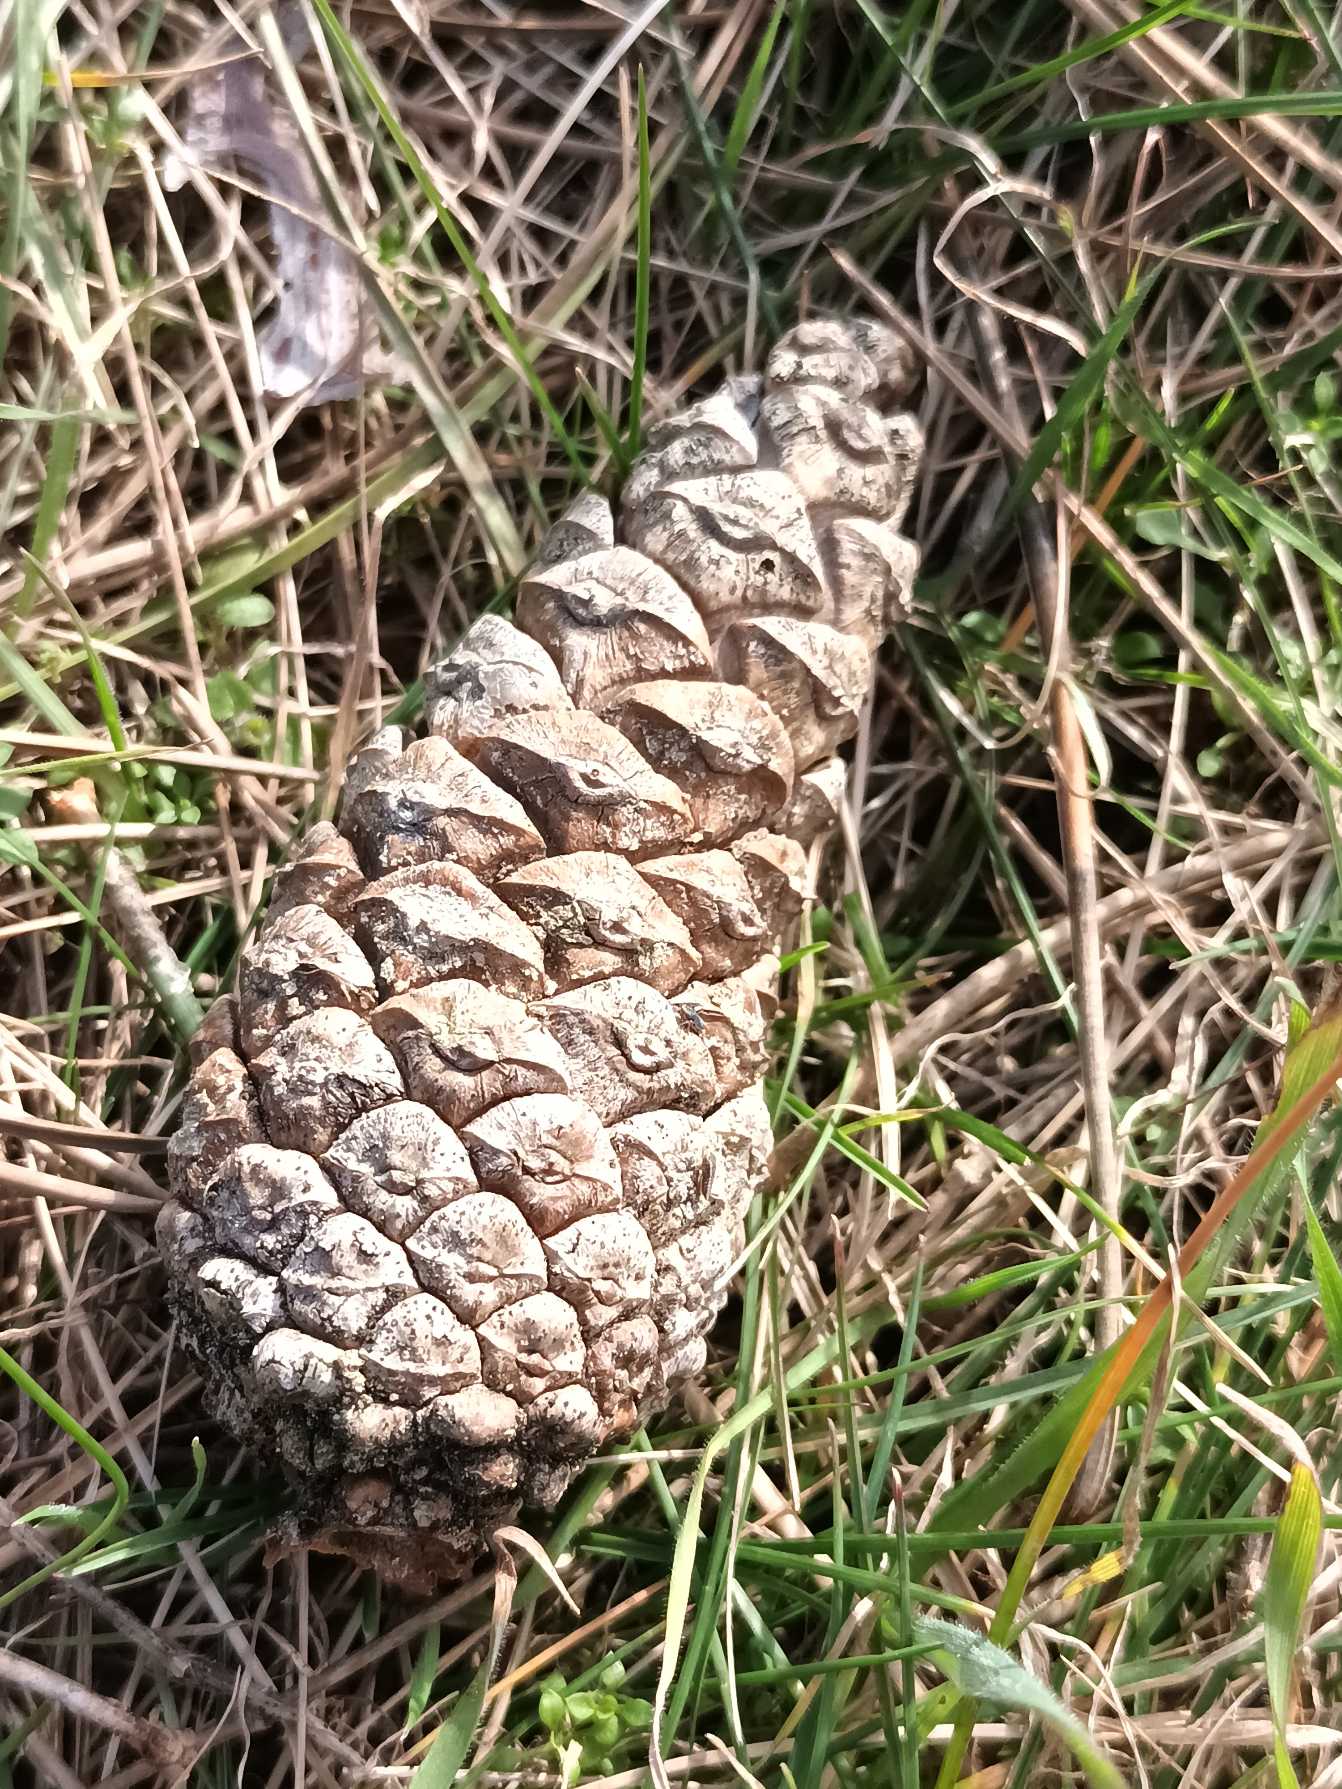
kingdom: Plantae
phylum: Tracheophyta
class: Pinopsida
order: Pinales
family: Pinaceae
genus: Pinus
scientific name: Pinus nigra
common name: Østrigsk fyr
